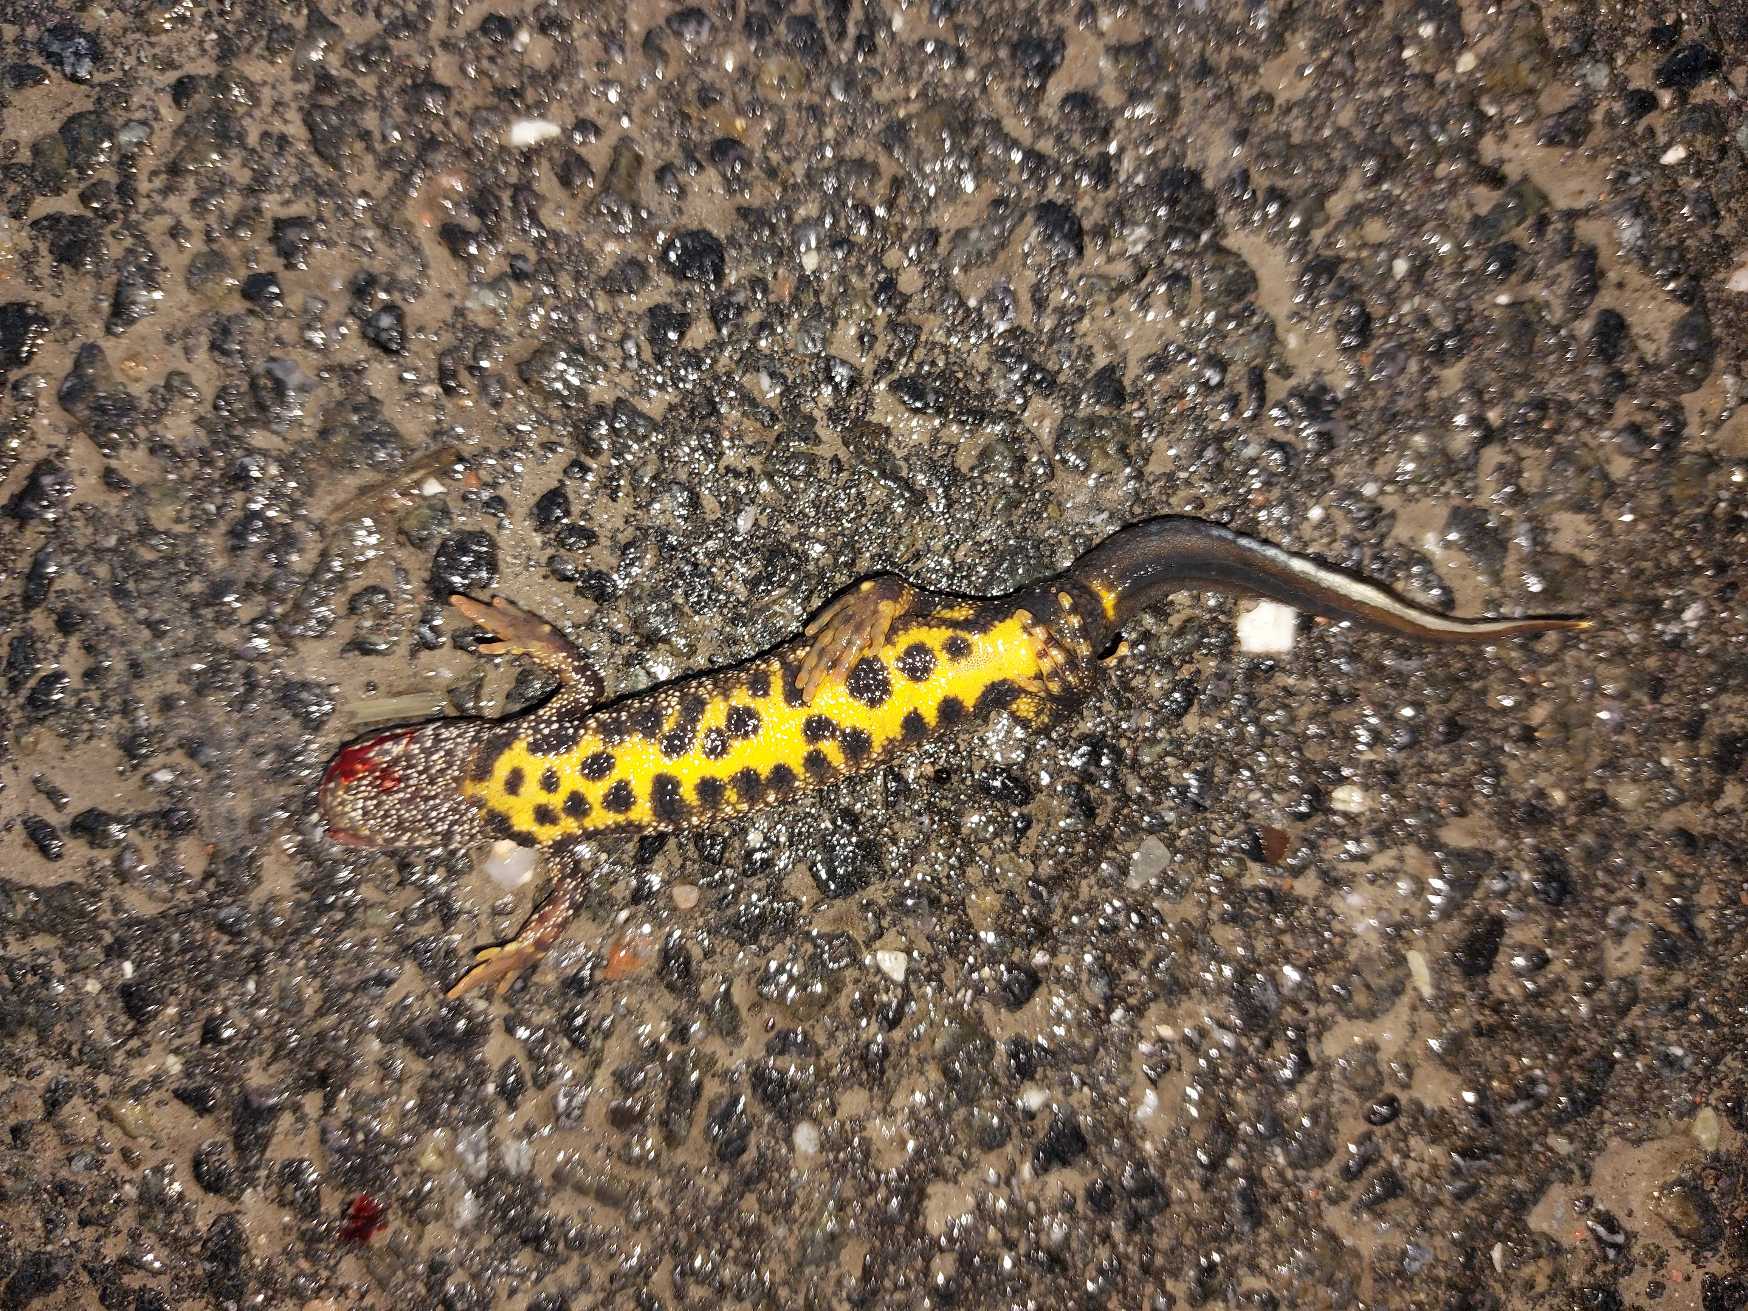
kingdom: Animalia
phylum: Chordata
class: Amphibia
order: Caudata
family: Salamandridae
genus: Triturus
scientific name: Triturus cristatus
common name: Stor vandsalamander
